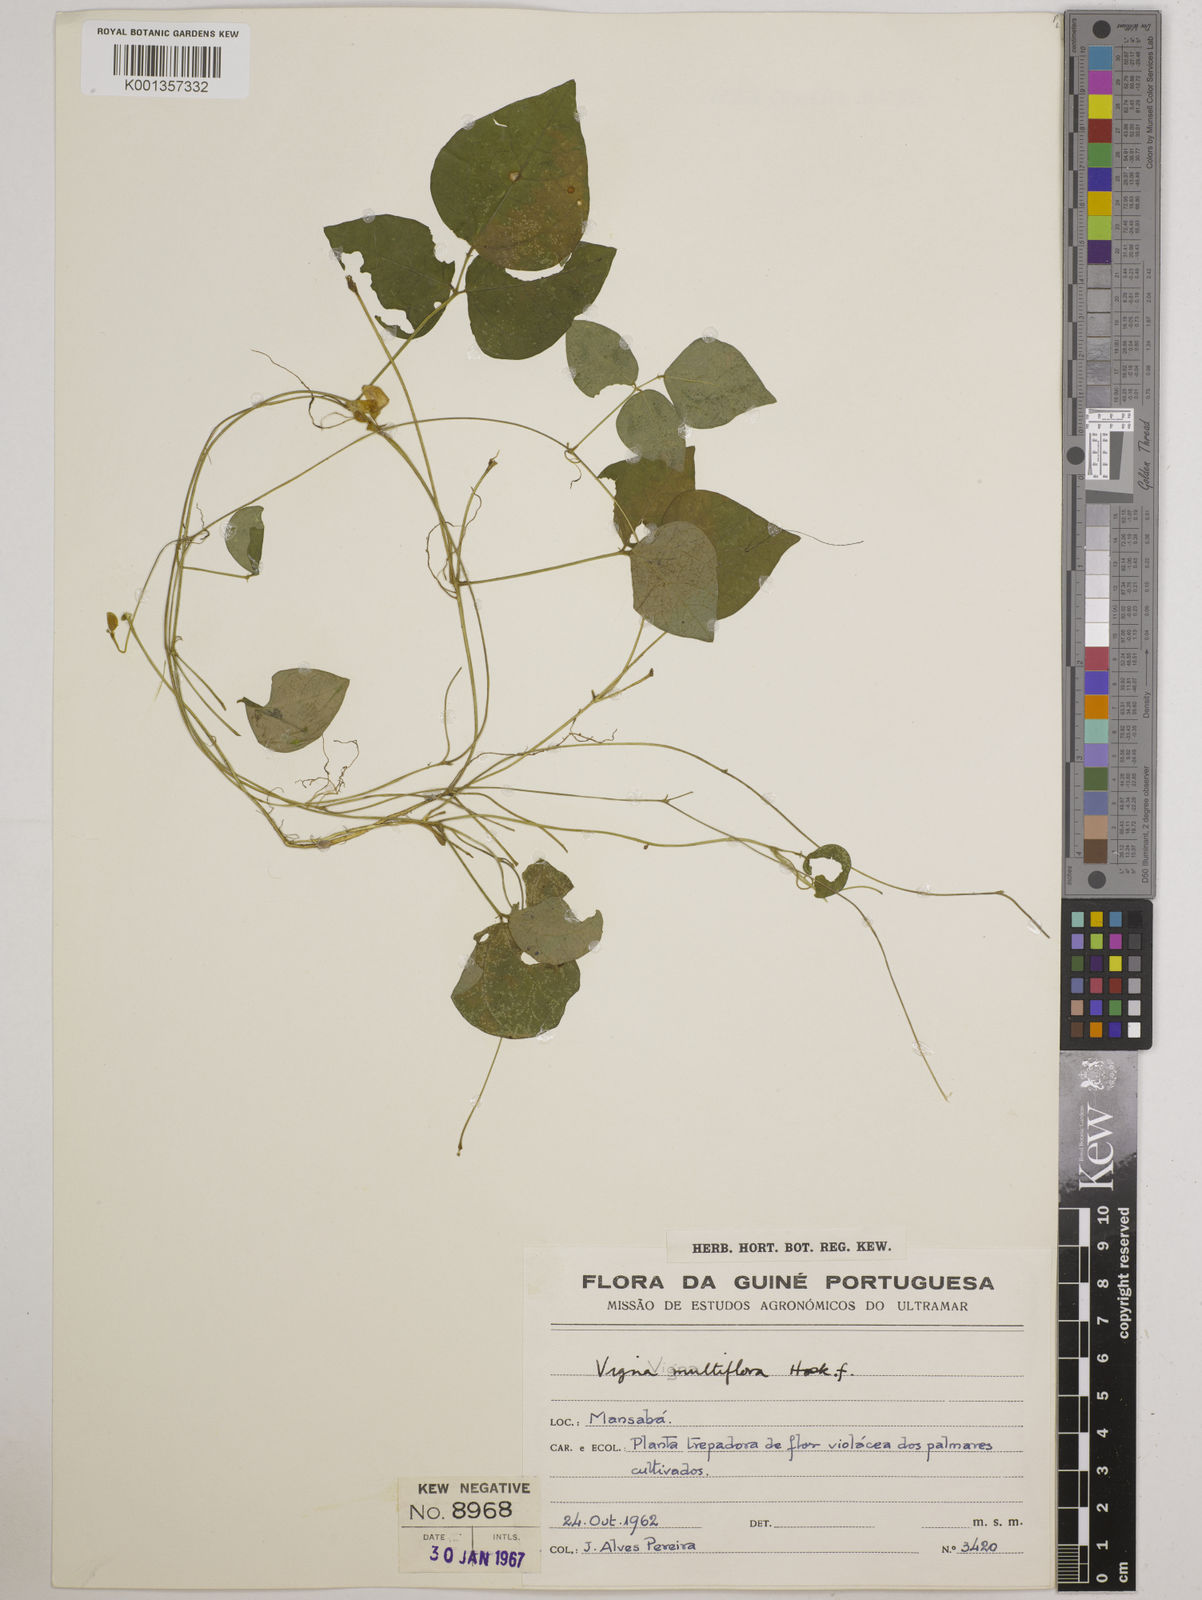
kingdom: Plantae
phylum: Tracheophyta
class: Magnoliopsida
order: Fabales
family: Fabaceae
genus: Vigna
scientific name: Vigna gracilis
